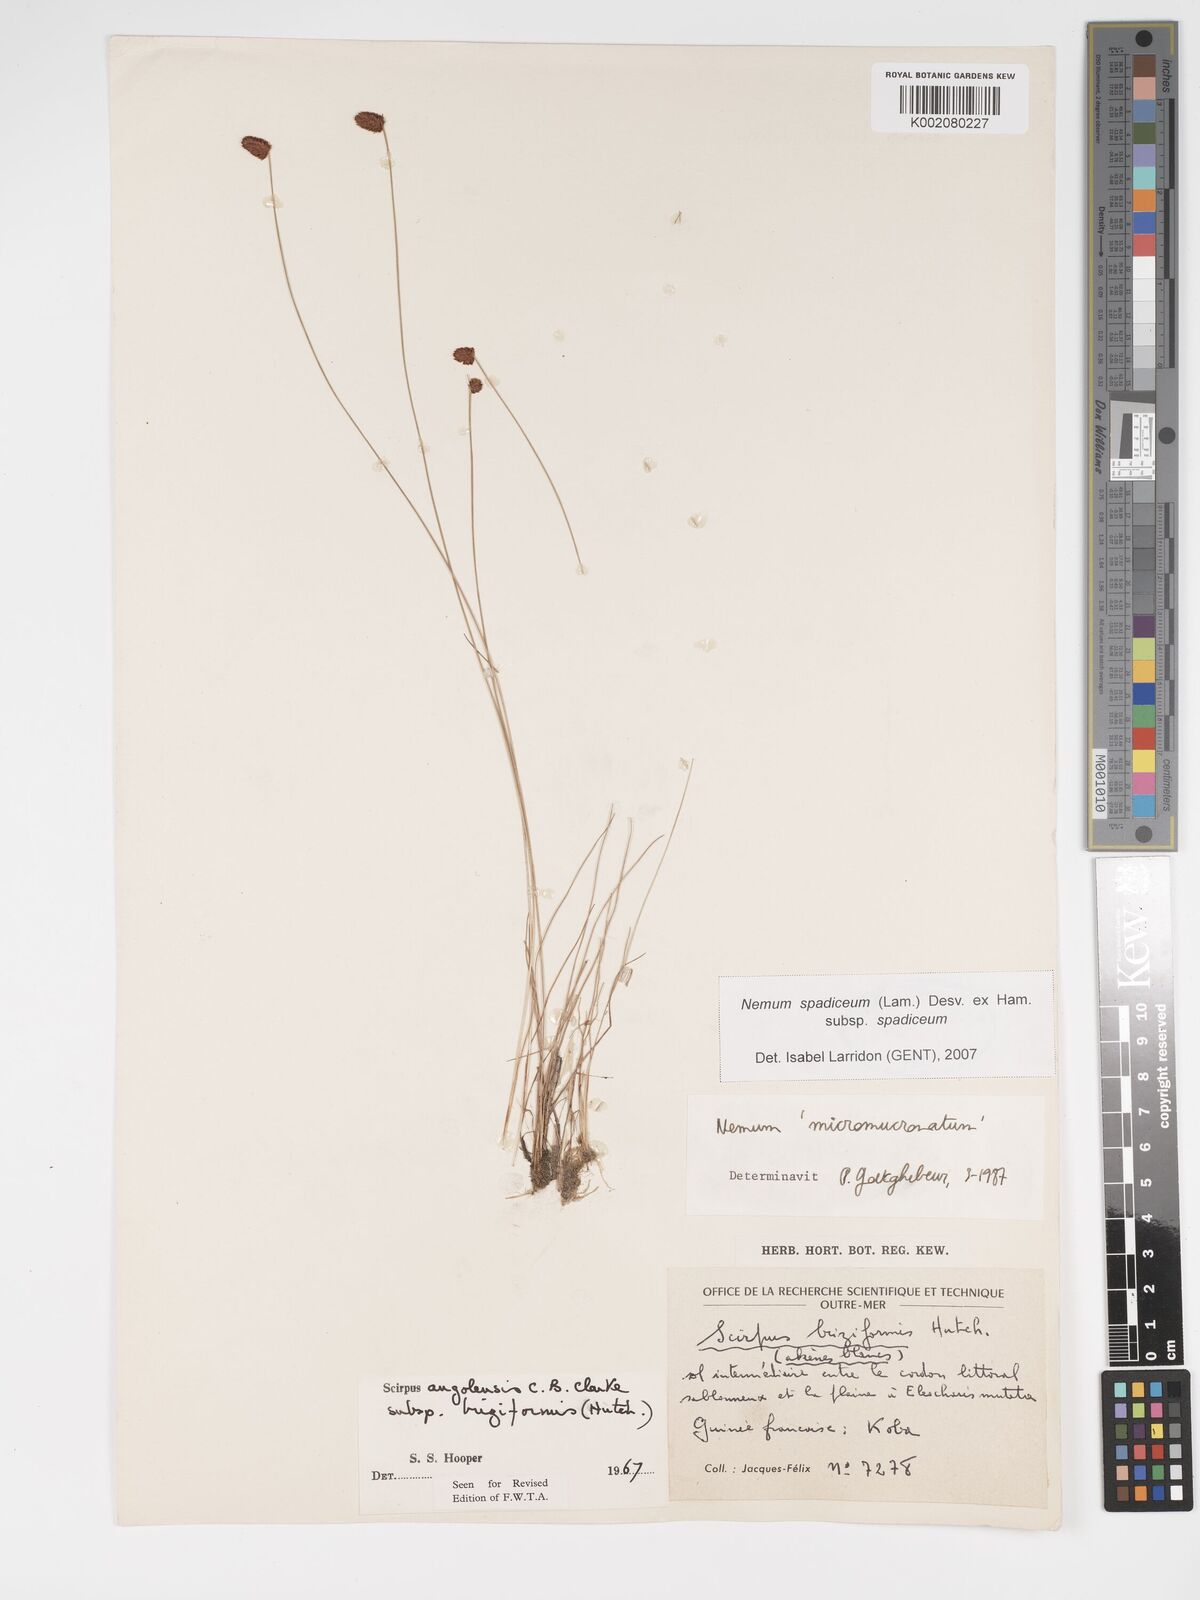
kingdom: Plantae
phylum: Tracheophyta
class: Liliopsida
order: Poales
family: Cyperaceae
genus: Bulbostylis
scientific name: Bulbostylis briziformis
